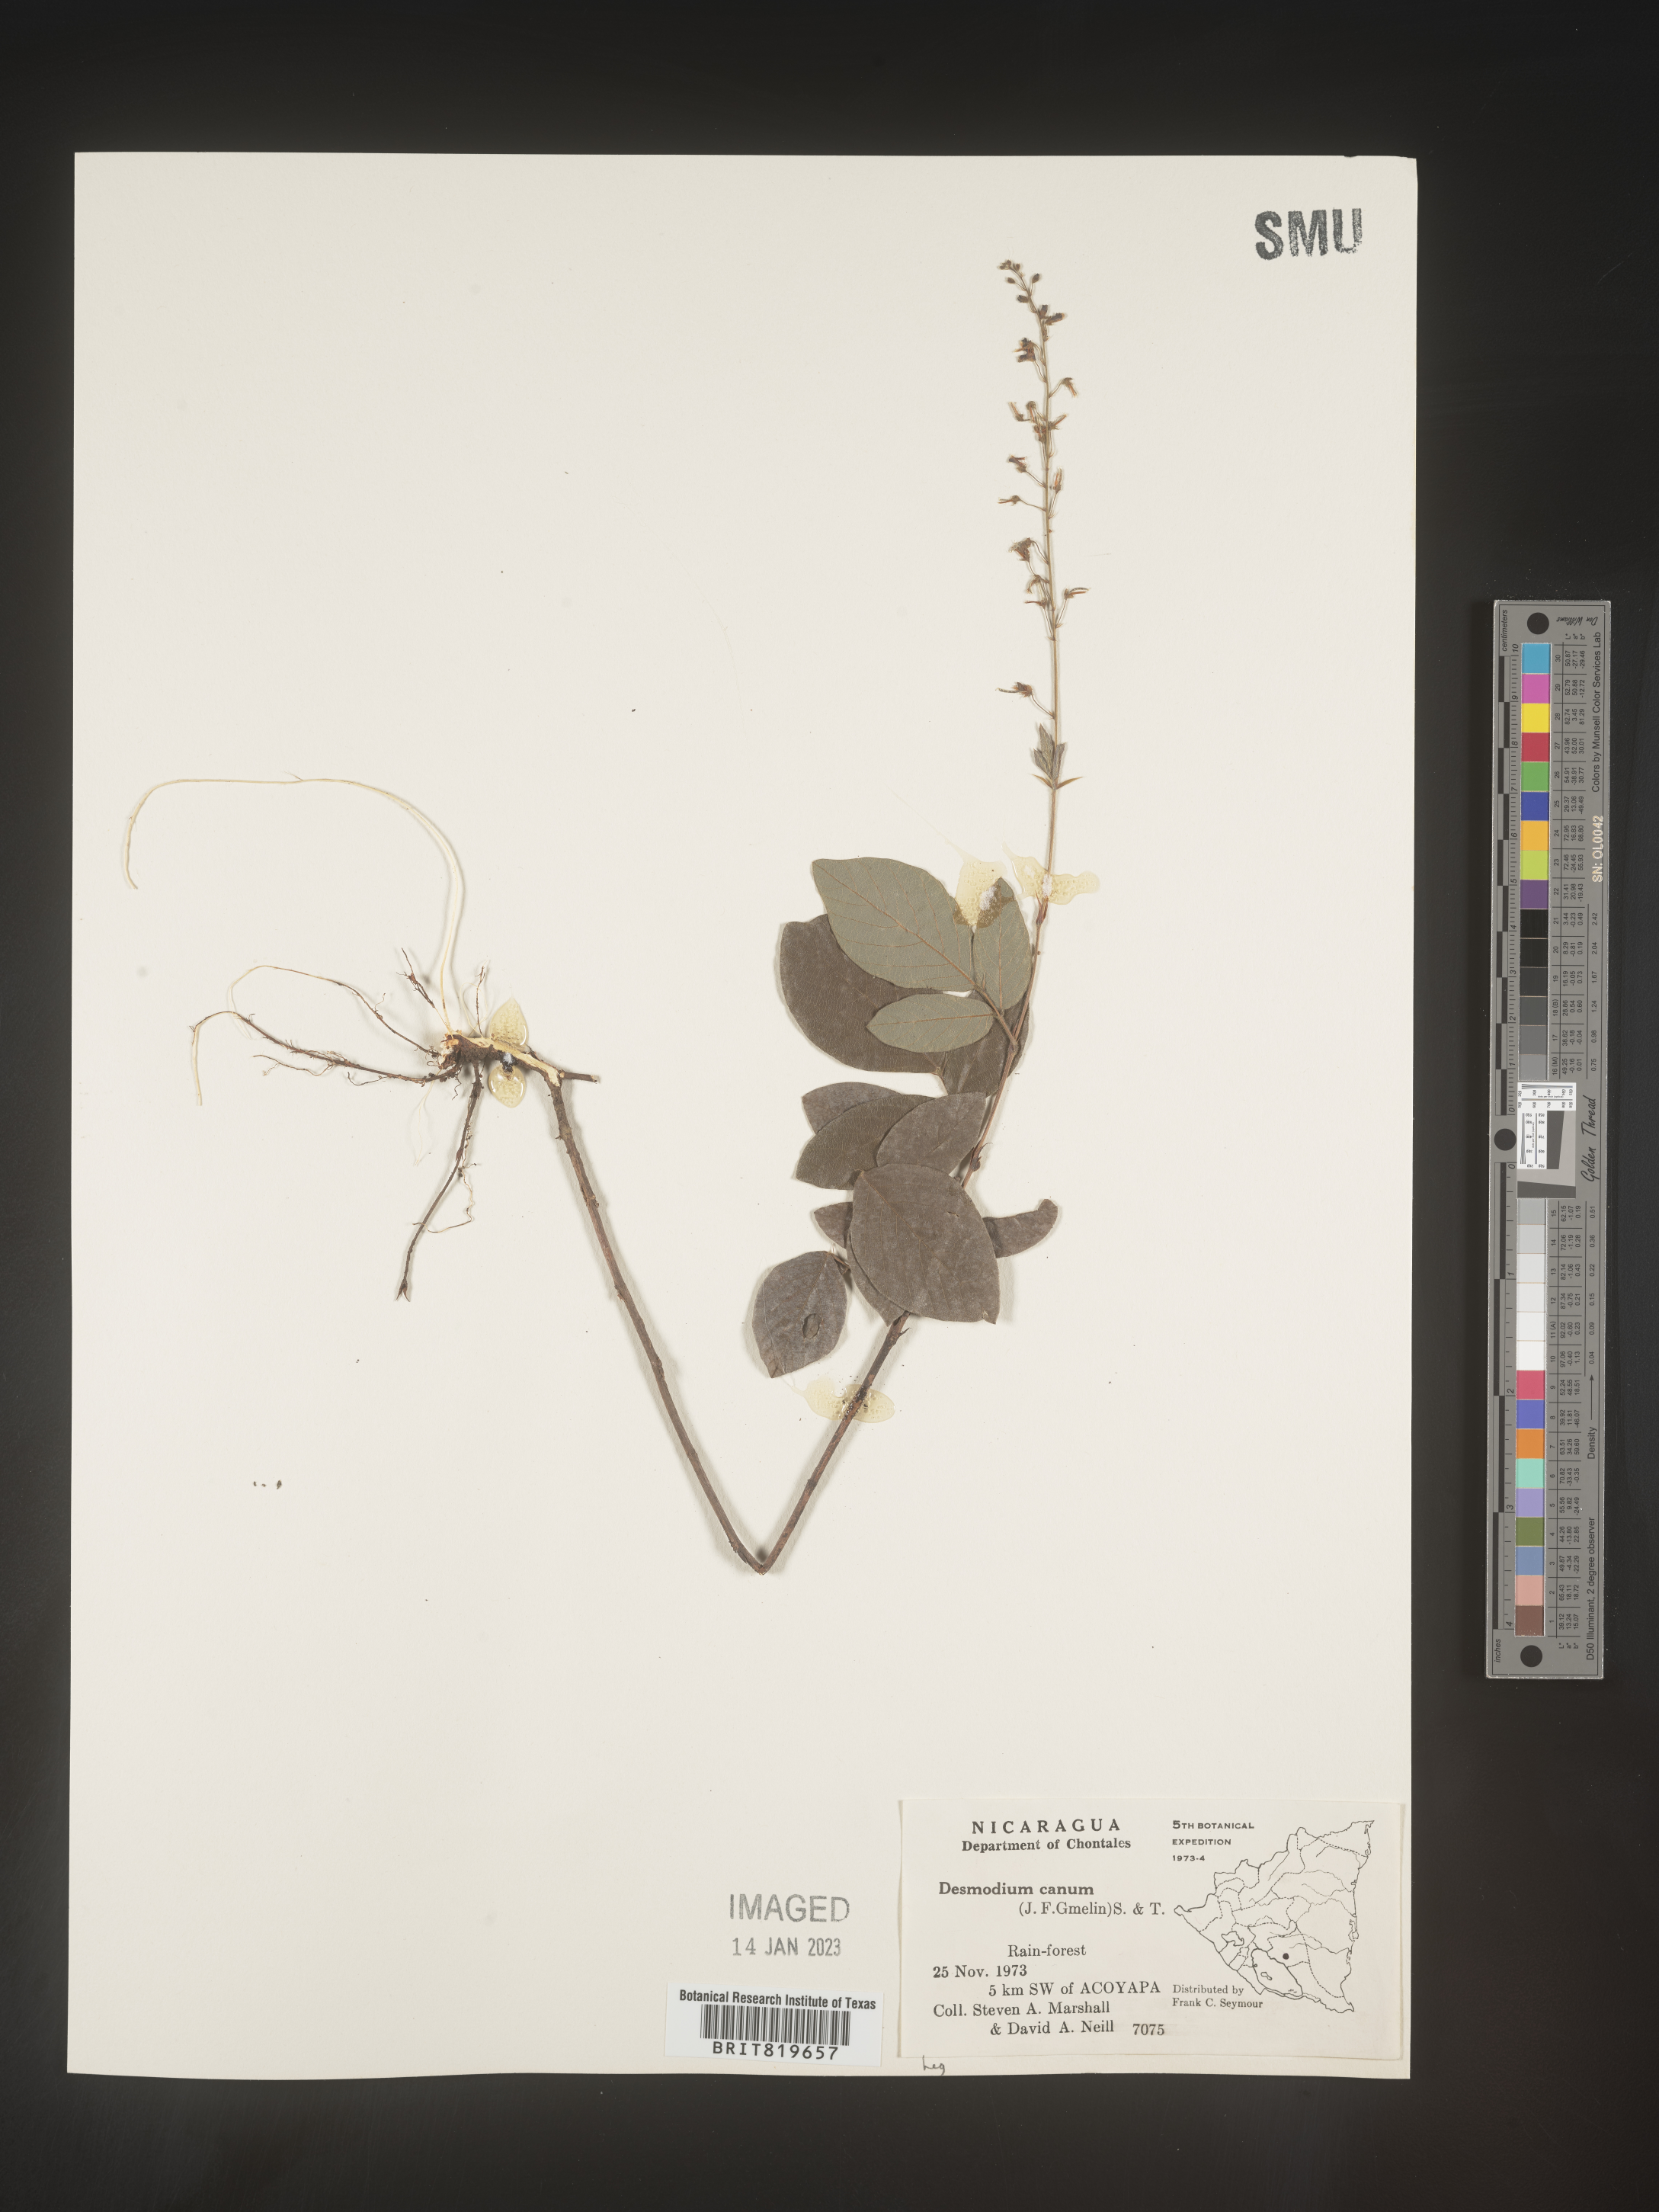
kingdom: Plantae
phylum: Tracheophyta
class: Magnoliopsida
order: Fabales
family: Fabaceae
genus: Desmodium
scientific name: Desmodium
